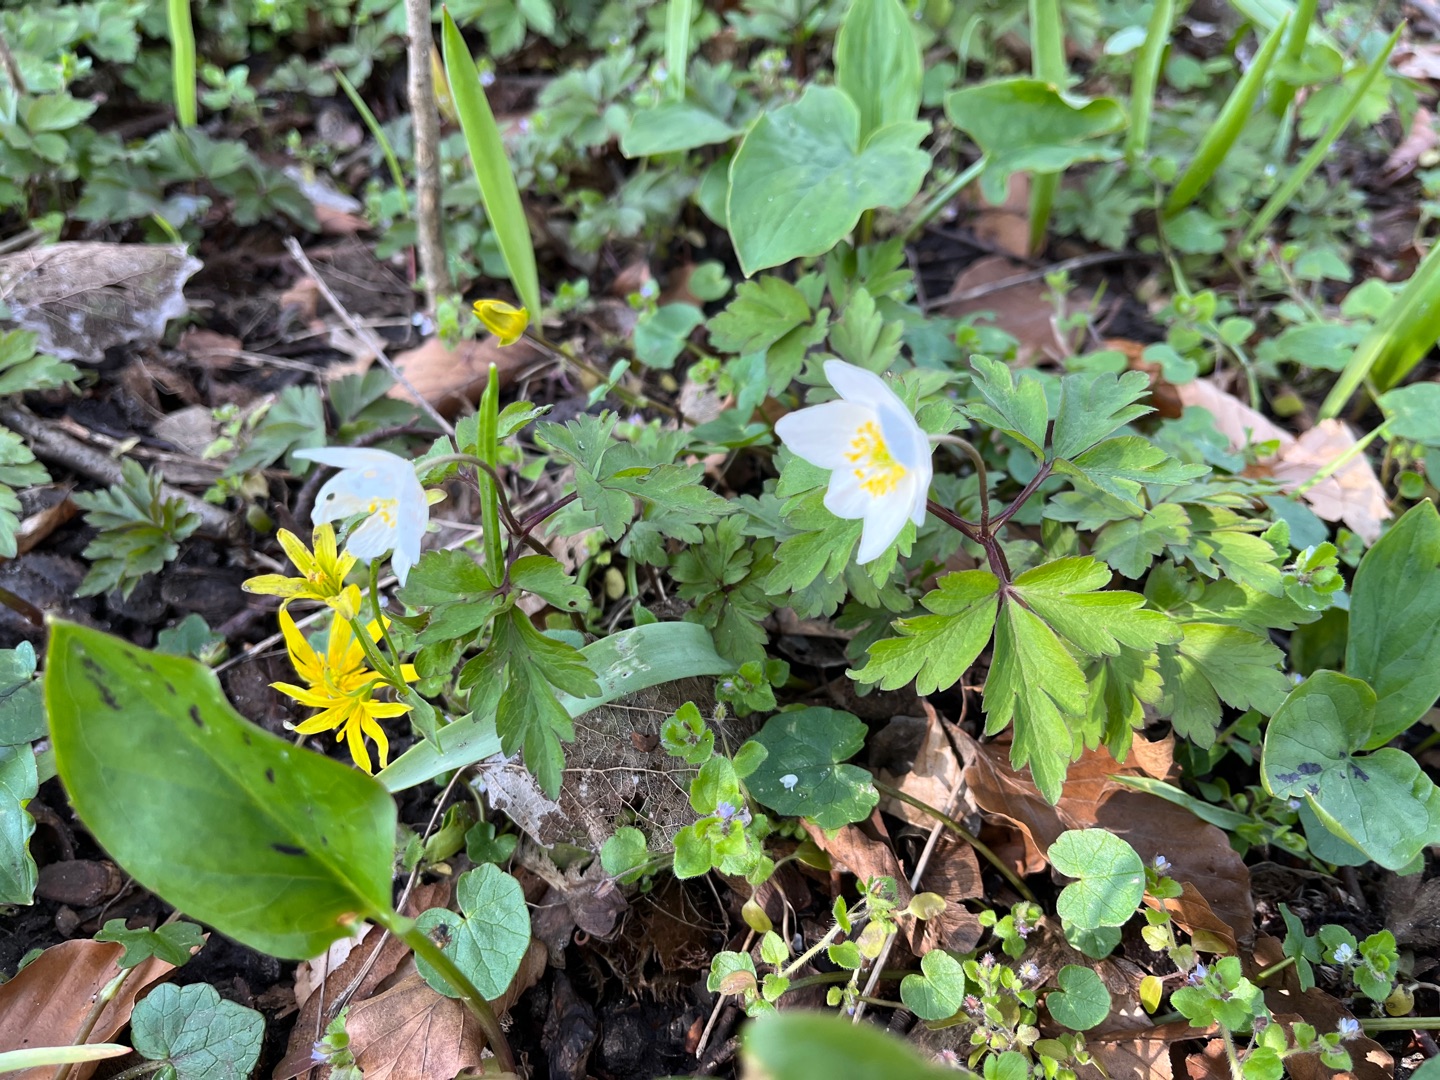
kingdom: Plantae
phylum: Tracheophyta
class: Magnoliopsida
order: Ranunculales
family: Ranunculaceae
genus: Anemone
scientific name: Anemone nemorosa
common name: Hvid anemone
